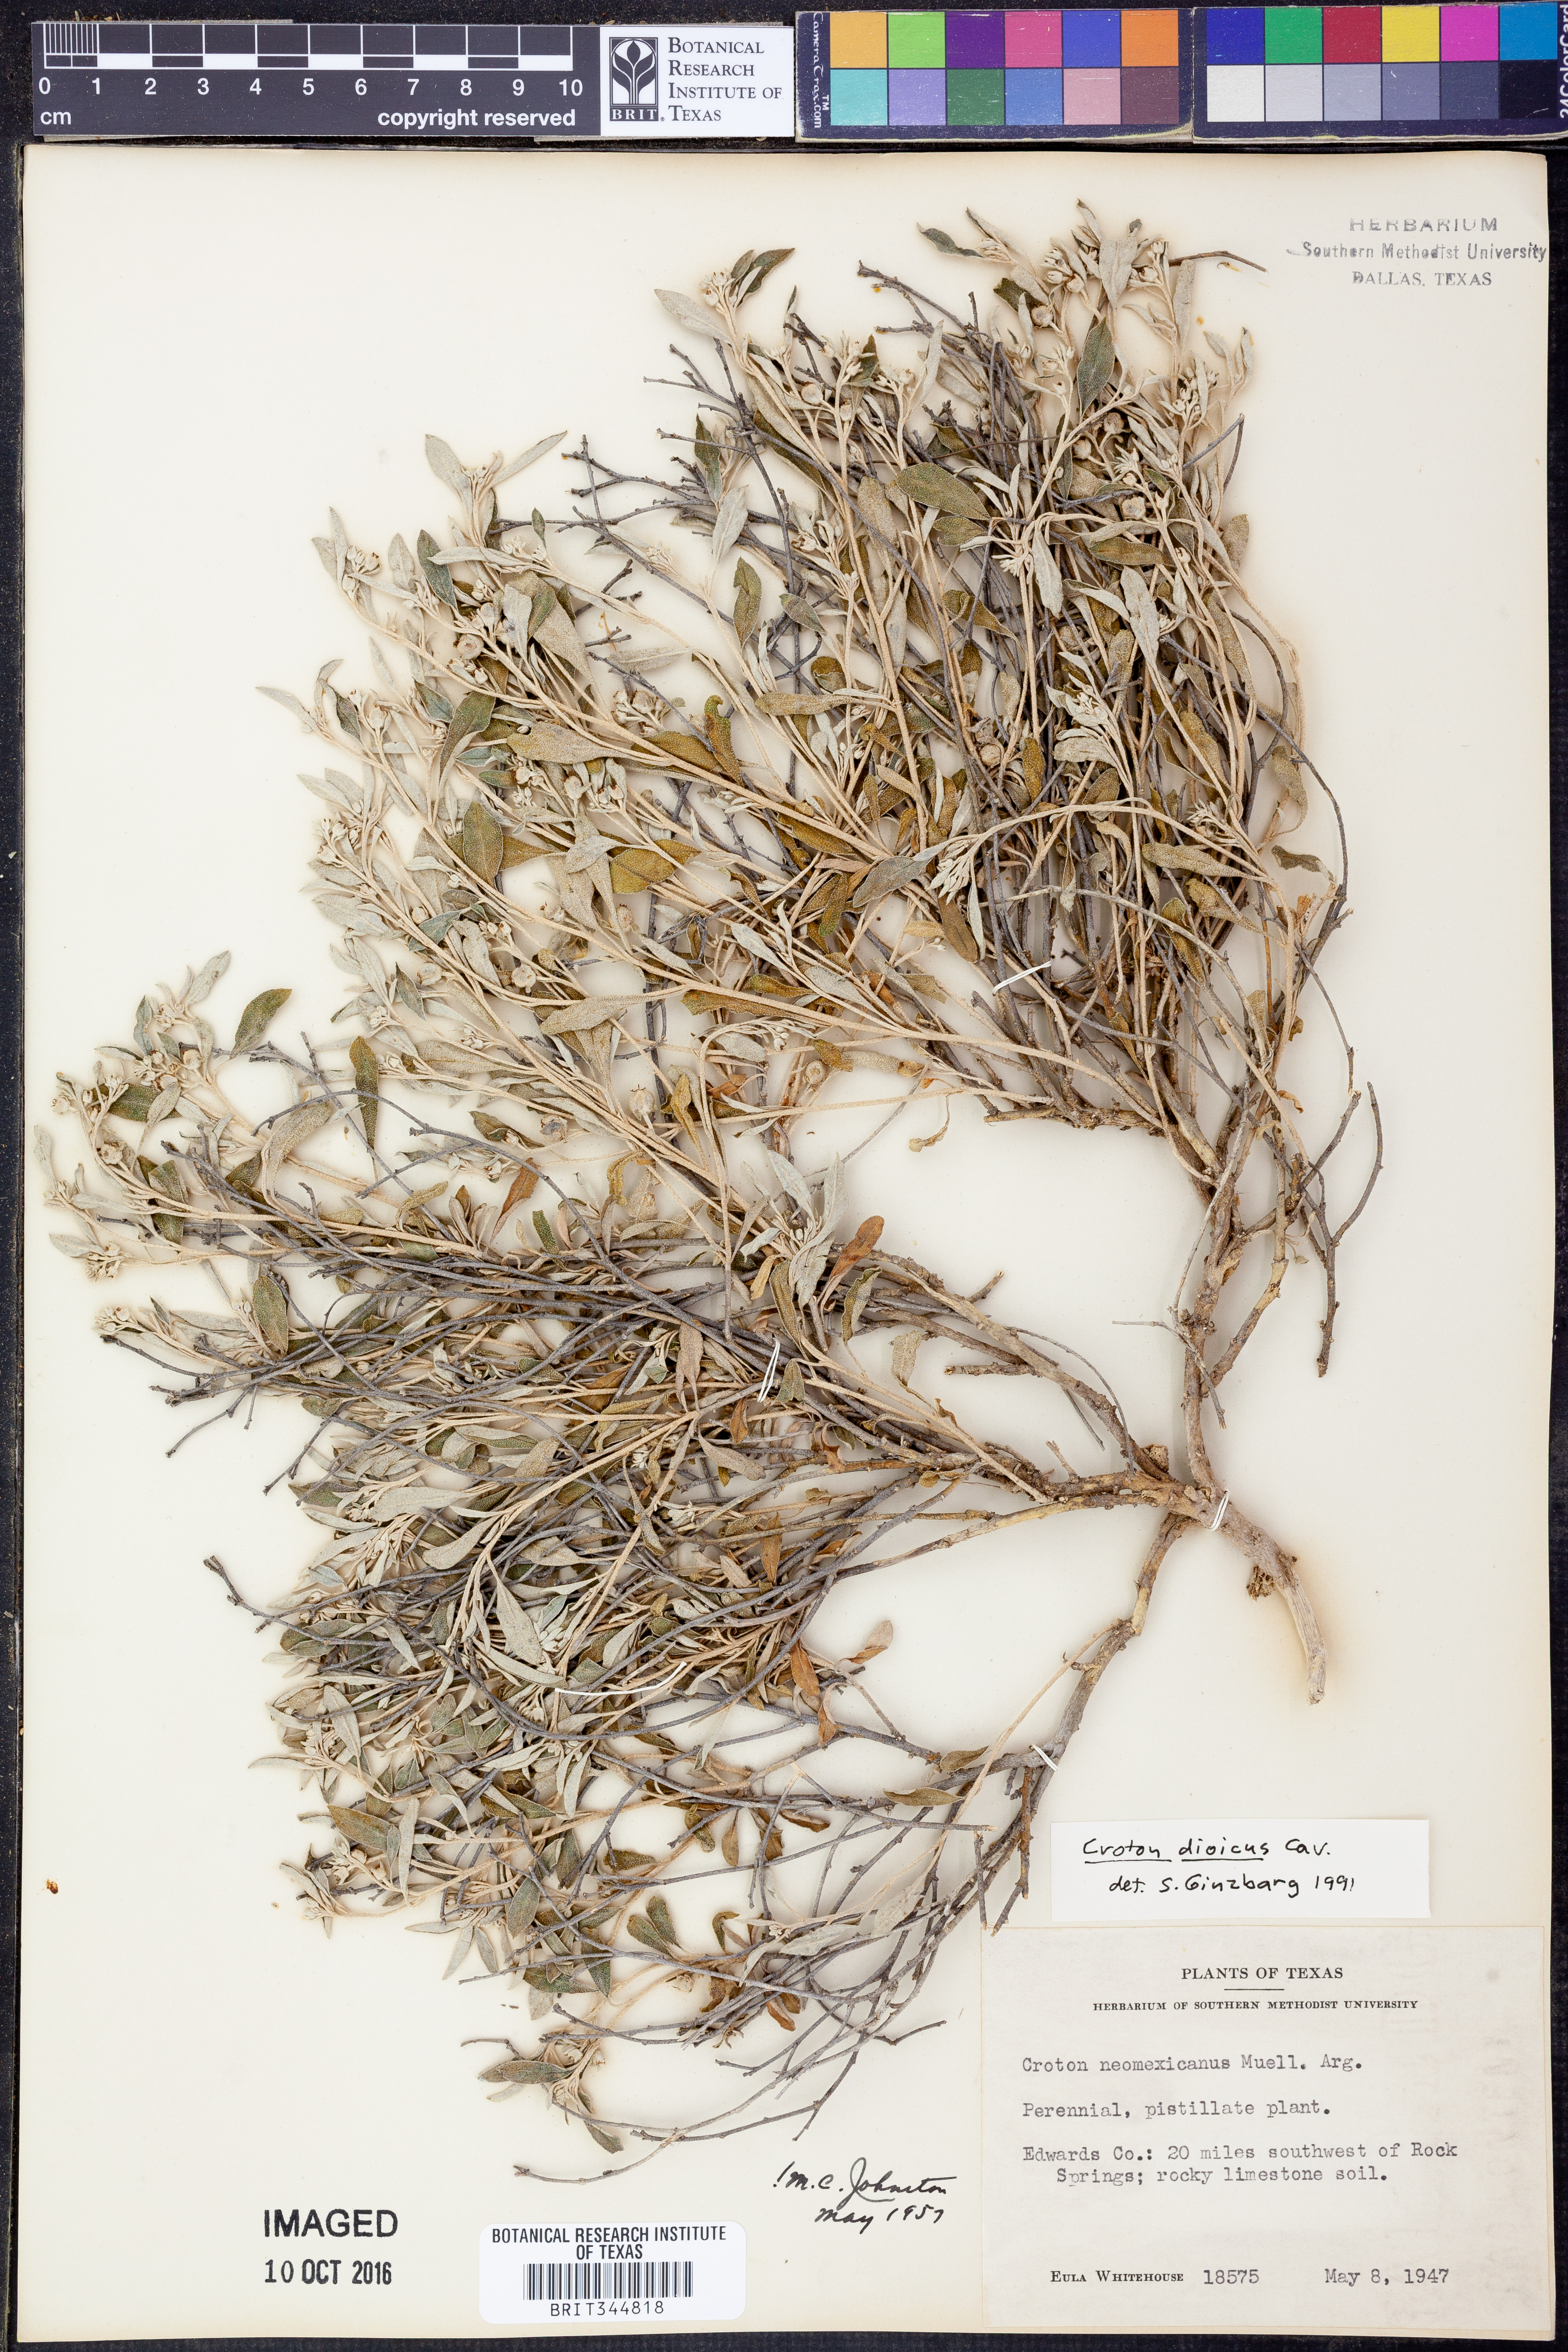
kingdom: Plantae
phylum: Tracheophyta
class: Magnoliopsida
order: Malpighiales
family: Euphorbiaceae
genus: Croton
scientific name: Croton dioicus
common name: Grassland croton
